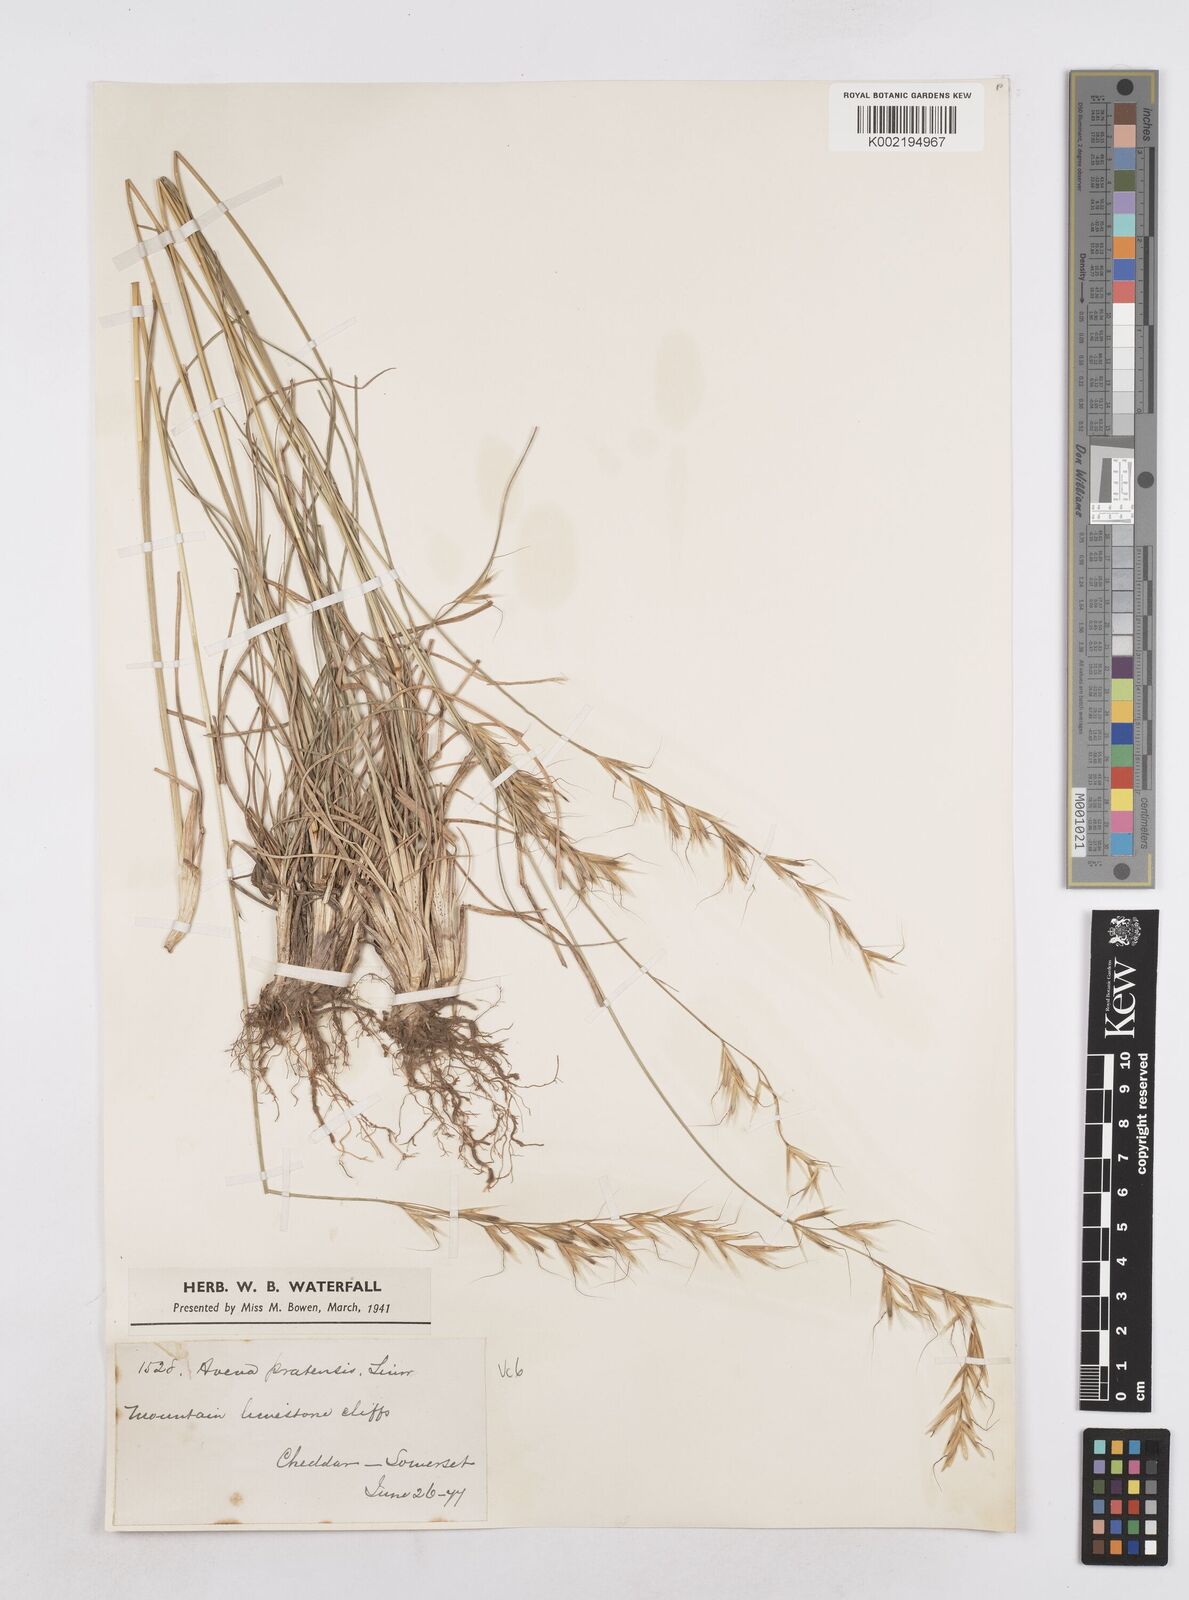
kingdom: Plantae
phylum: Tracheophyta
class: Liliopsida
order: Poales
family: Poaceae
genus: Helictochloa
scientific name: Helictochloa pratensis
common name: Meadow oat grass
